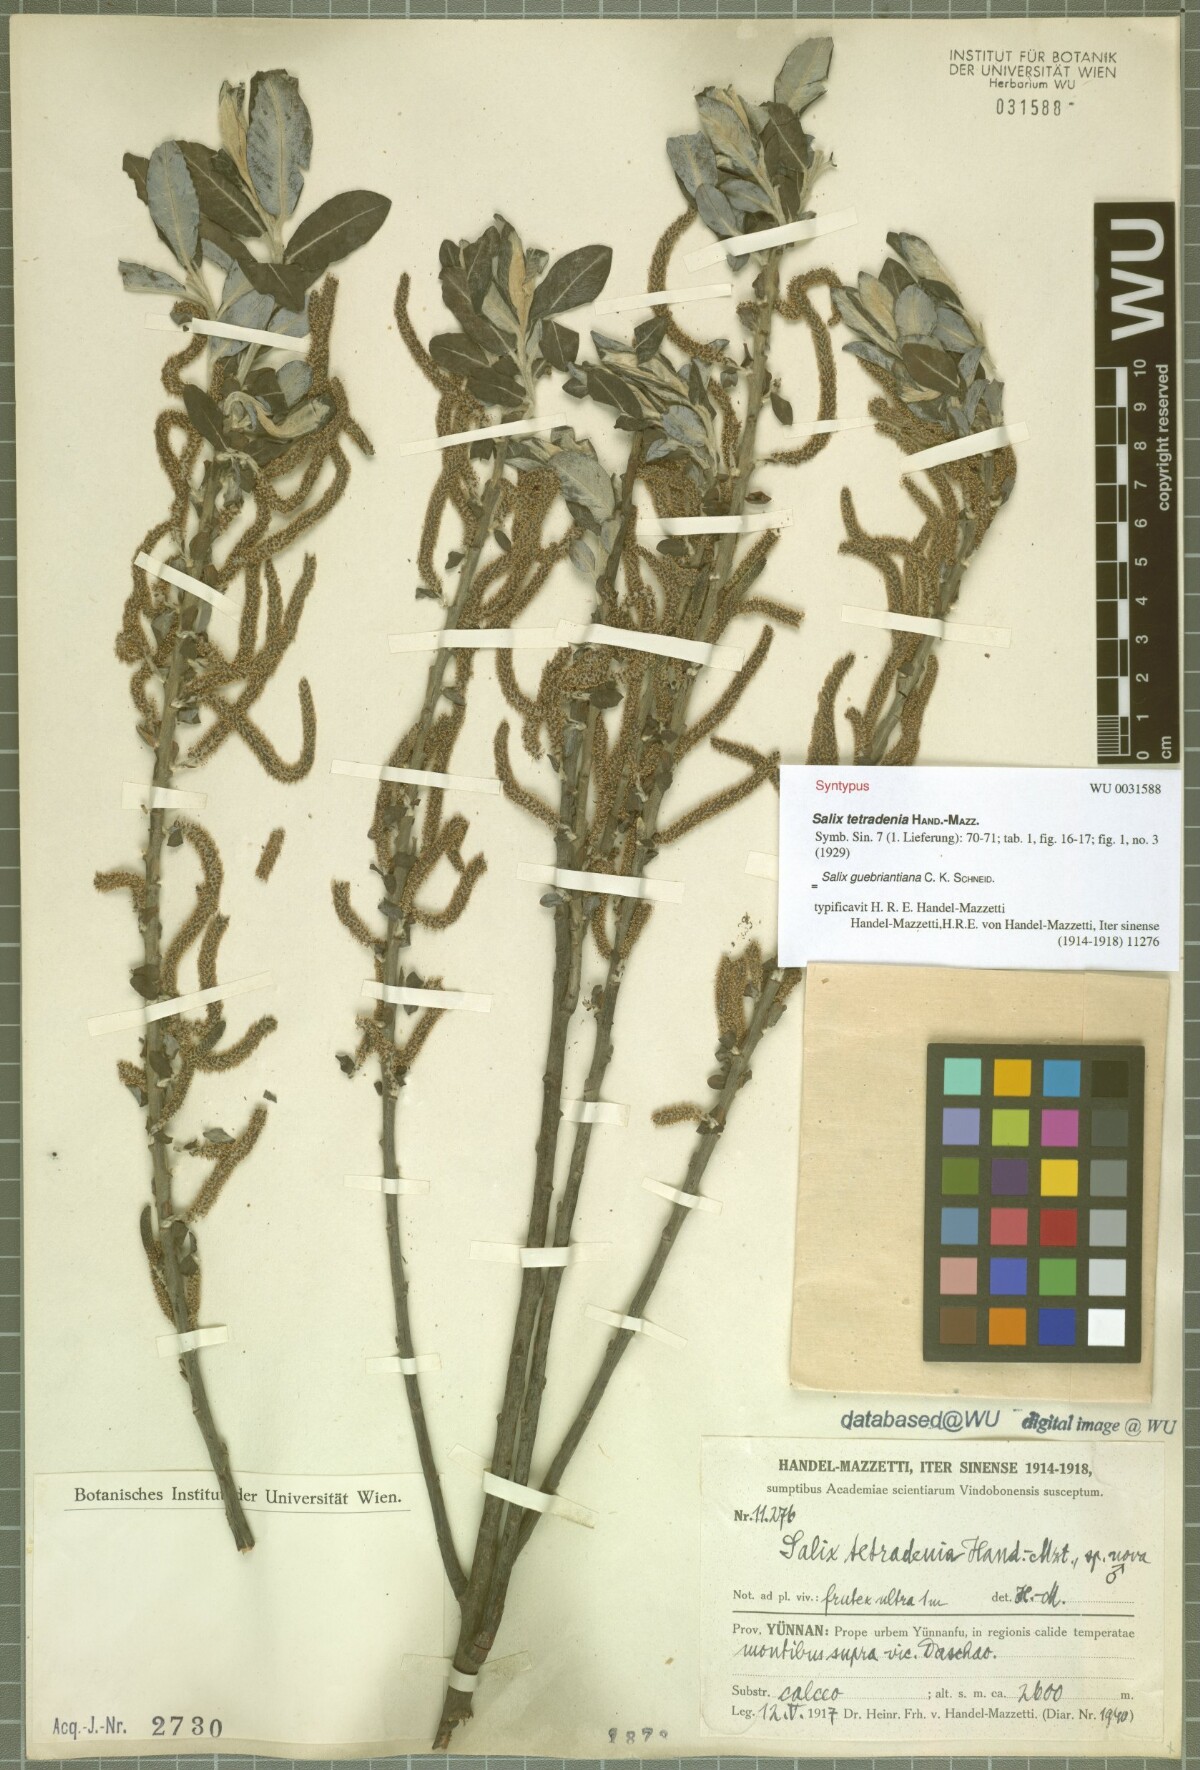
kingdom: Plantae
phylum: Tracheophyta
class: Magnoliopsida
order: Malpighiales
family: Salicaceae
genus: Salix
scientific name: Salix radinostachya
